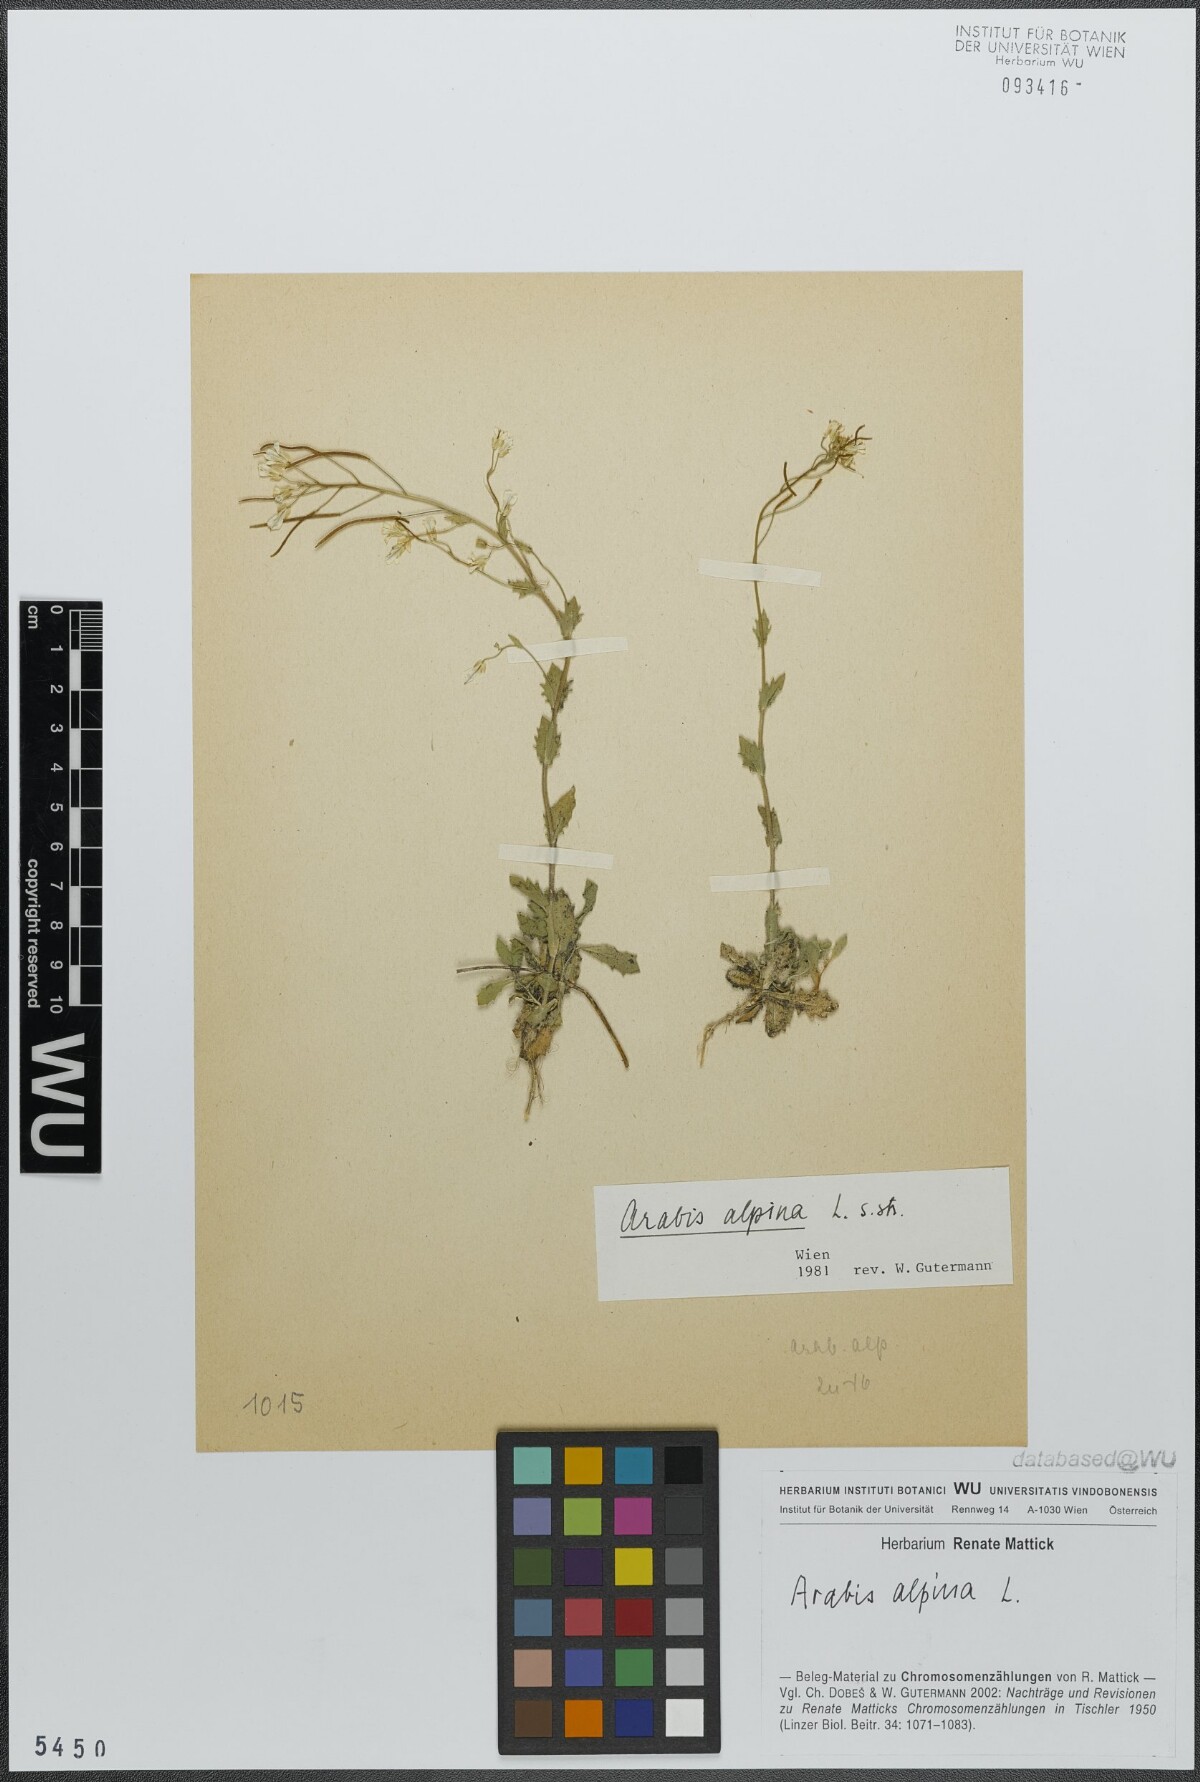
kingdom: Plantae
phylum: Tracheophyta
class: Magnoliopsida
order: Brassicales
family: Brassicaceae
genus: Arabis
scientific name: Arabis alpina
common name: Alpine rock-cress
